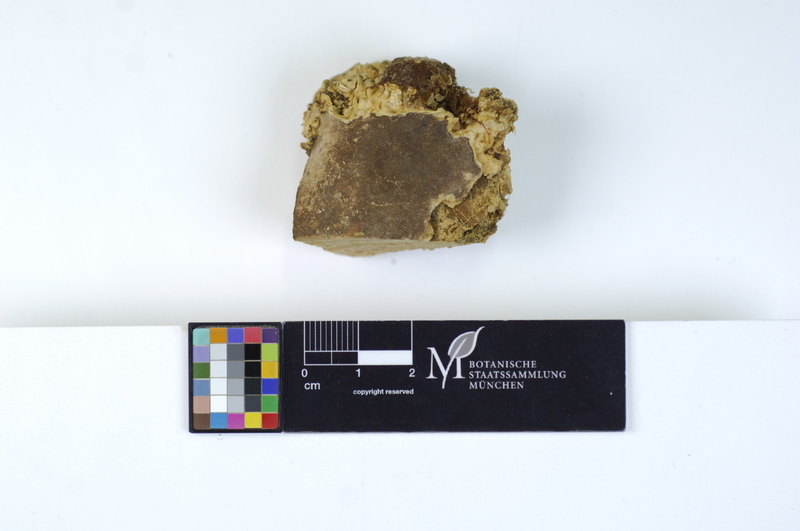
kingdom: Fungi
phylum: Basidiomycota
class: Agaricomycetes
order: Polyporales
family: Meripilaceae
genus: Rigidoporus
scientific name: Rigidoporus crocatus
